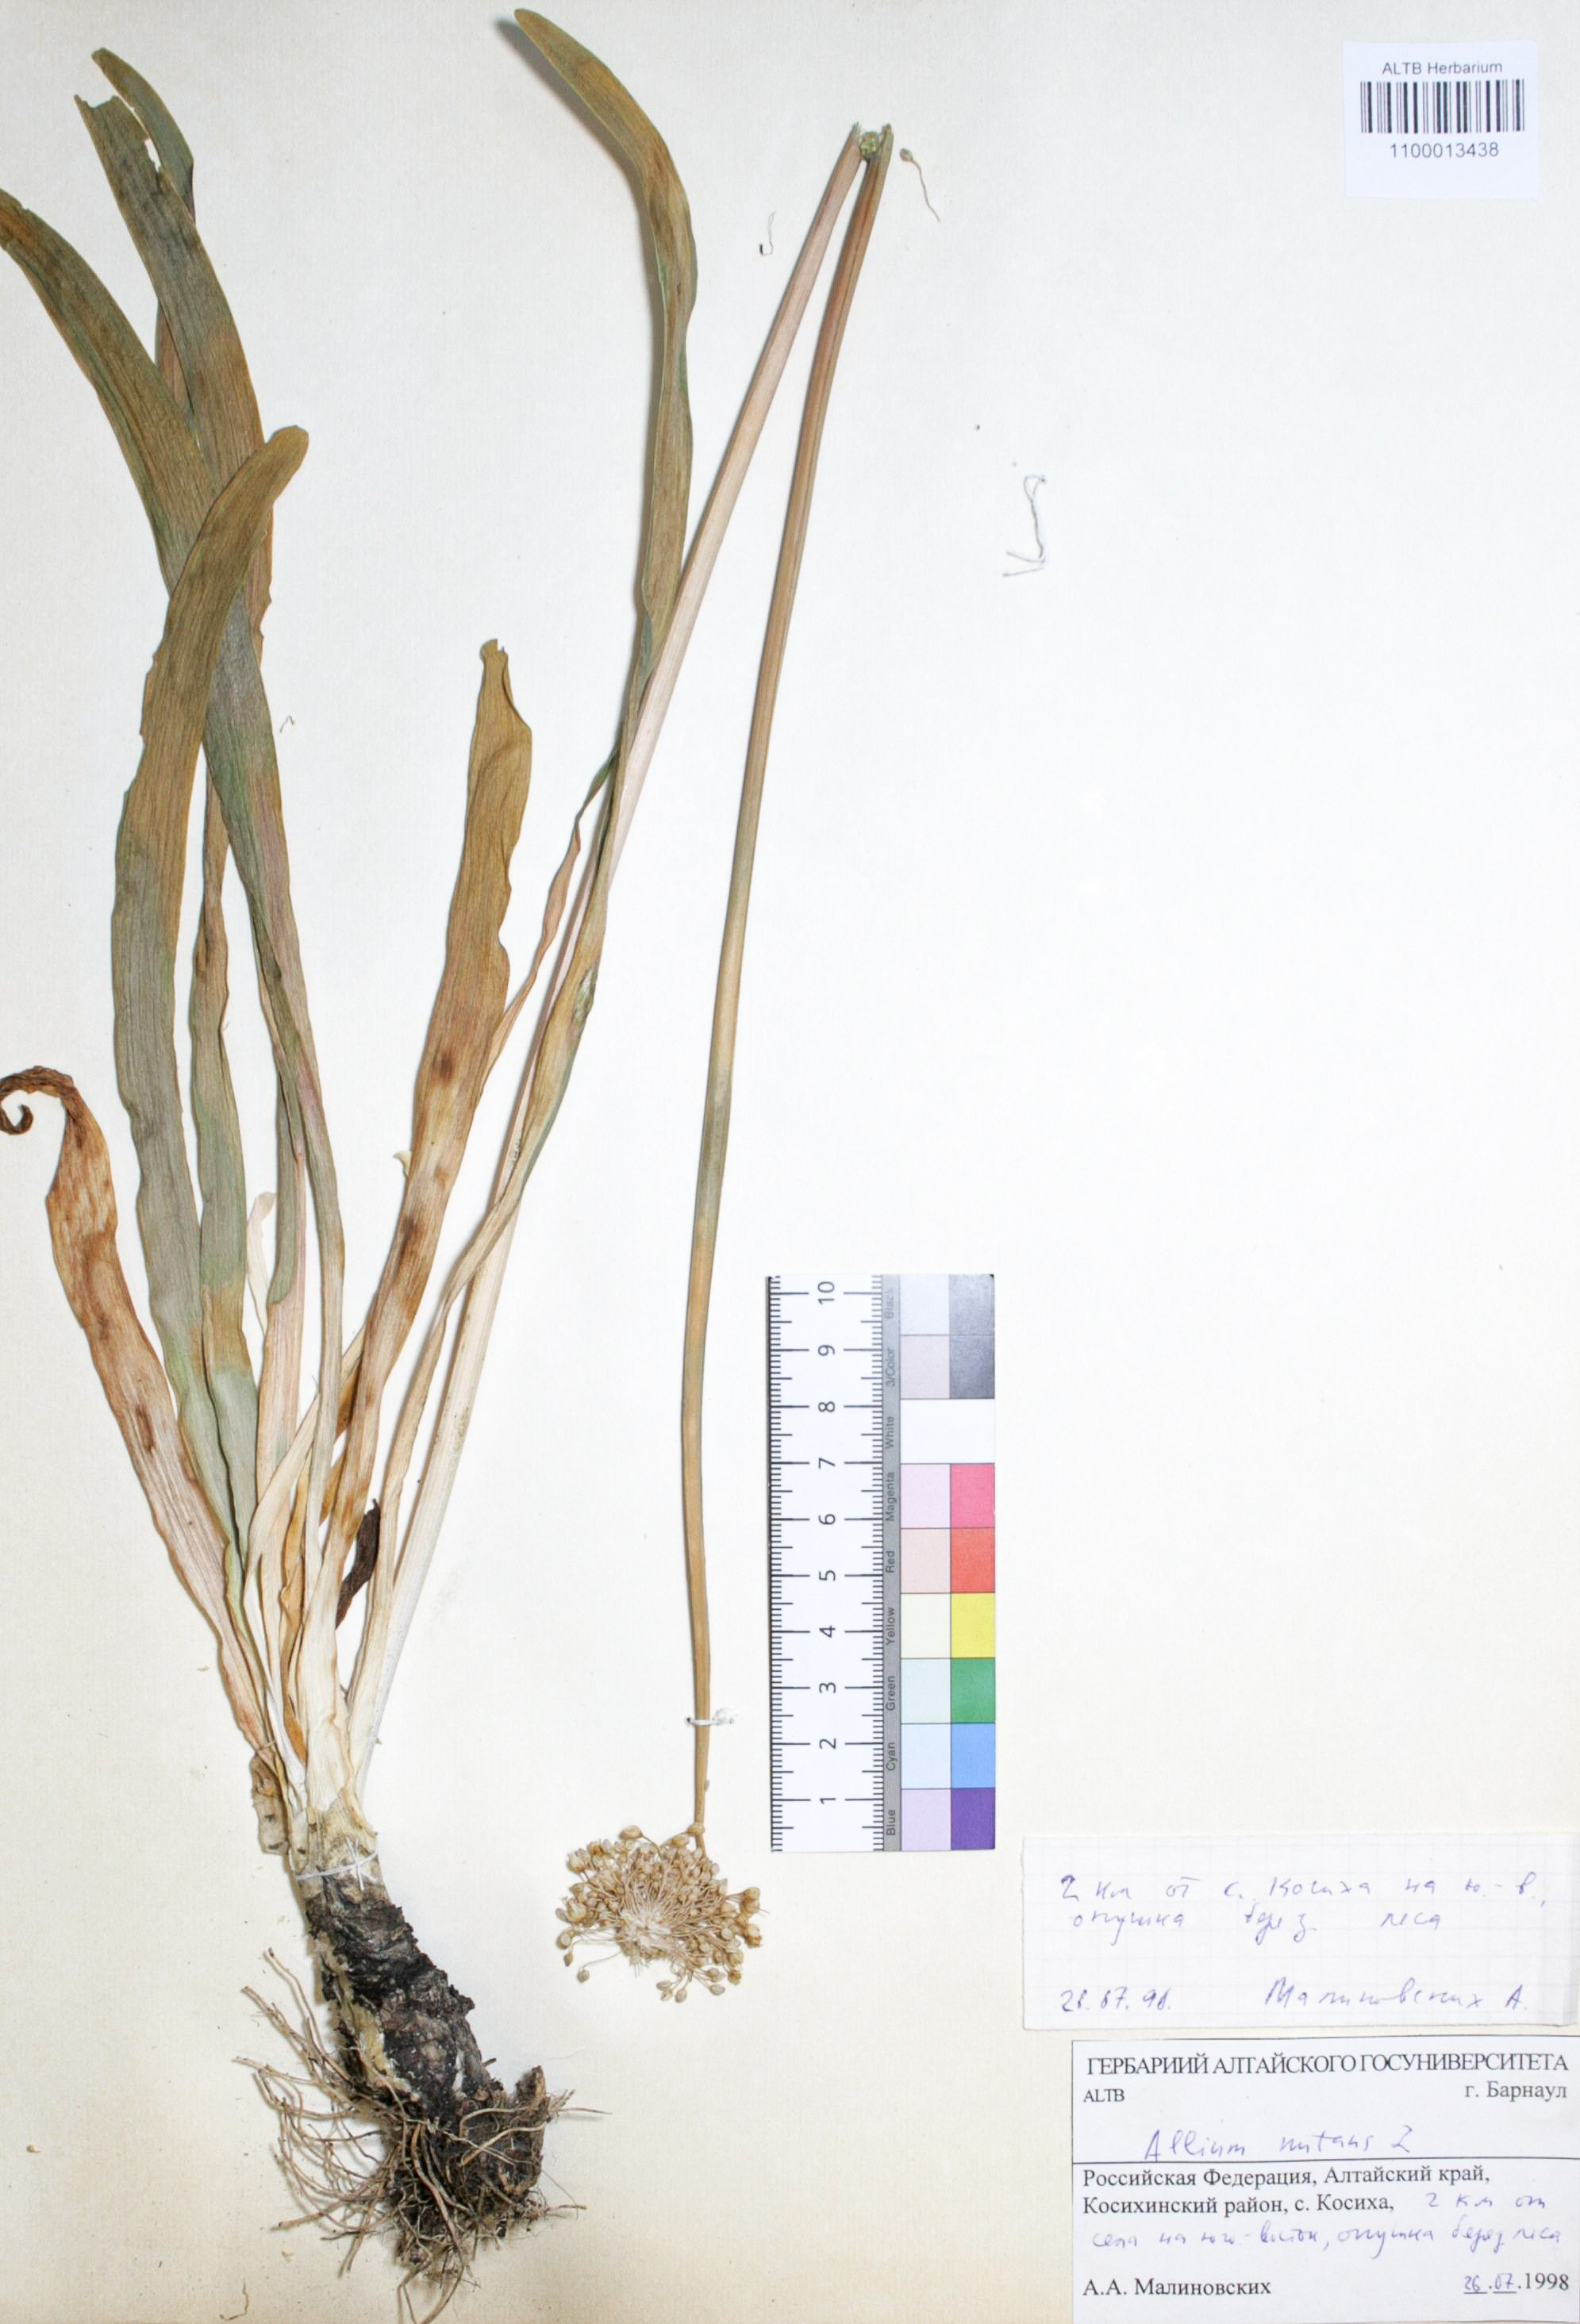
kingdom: Plantae
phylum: Tracheophyta
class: Liliopsida
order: Asparagales
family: Amaryllidaceae
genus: Allium
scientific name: Allium nutans
